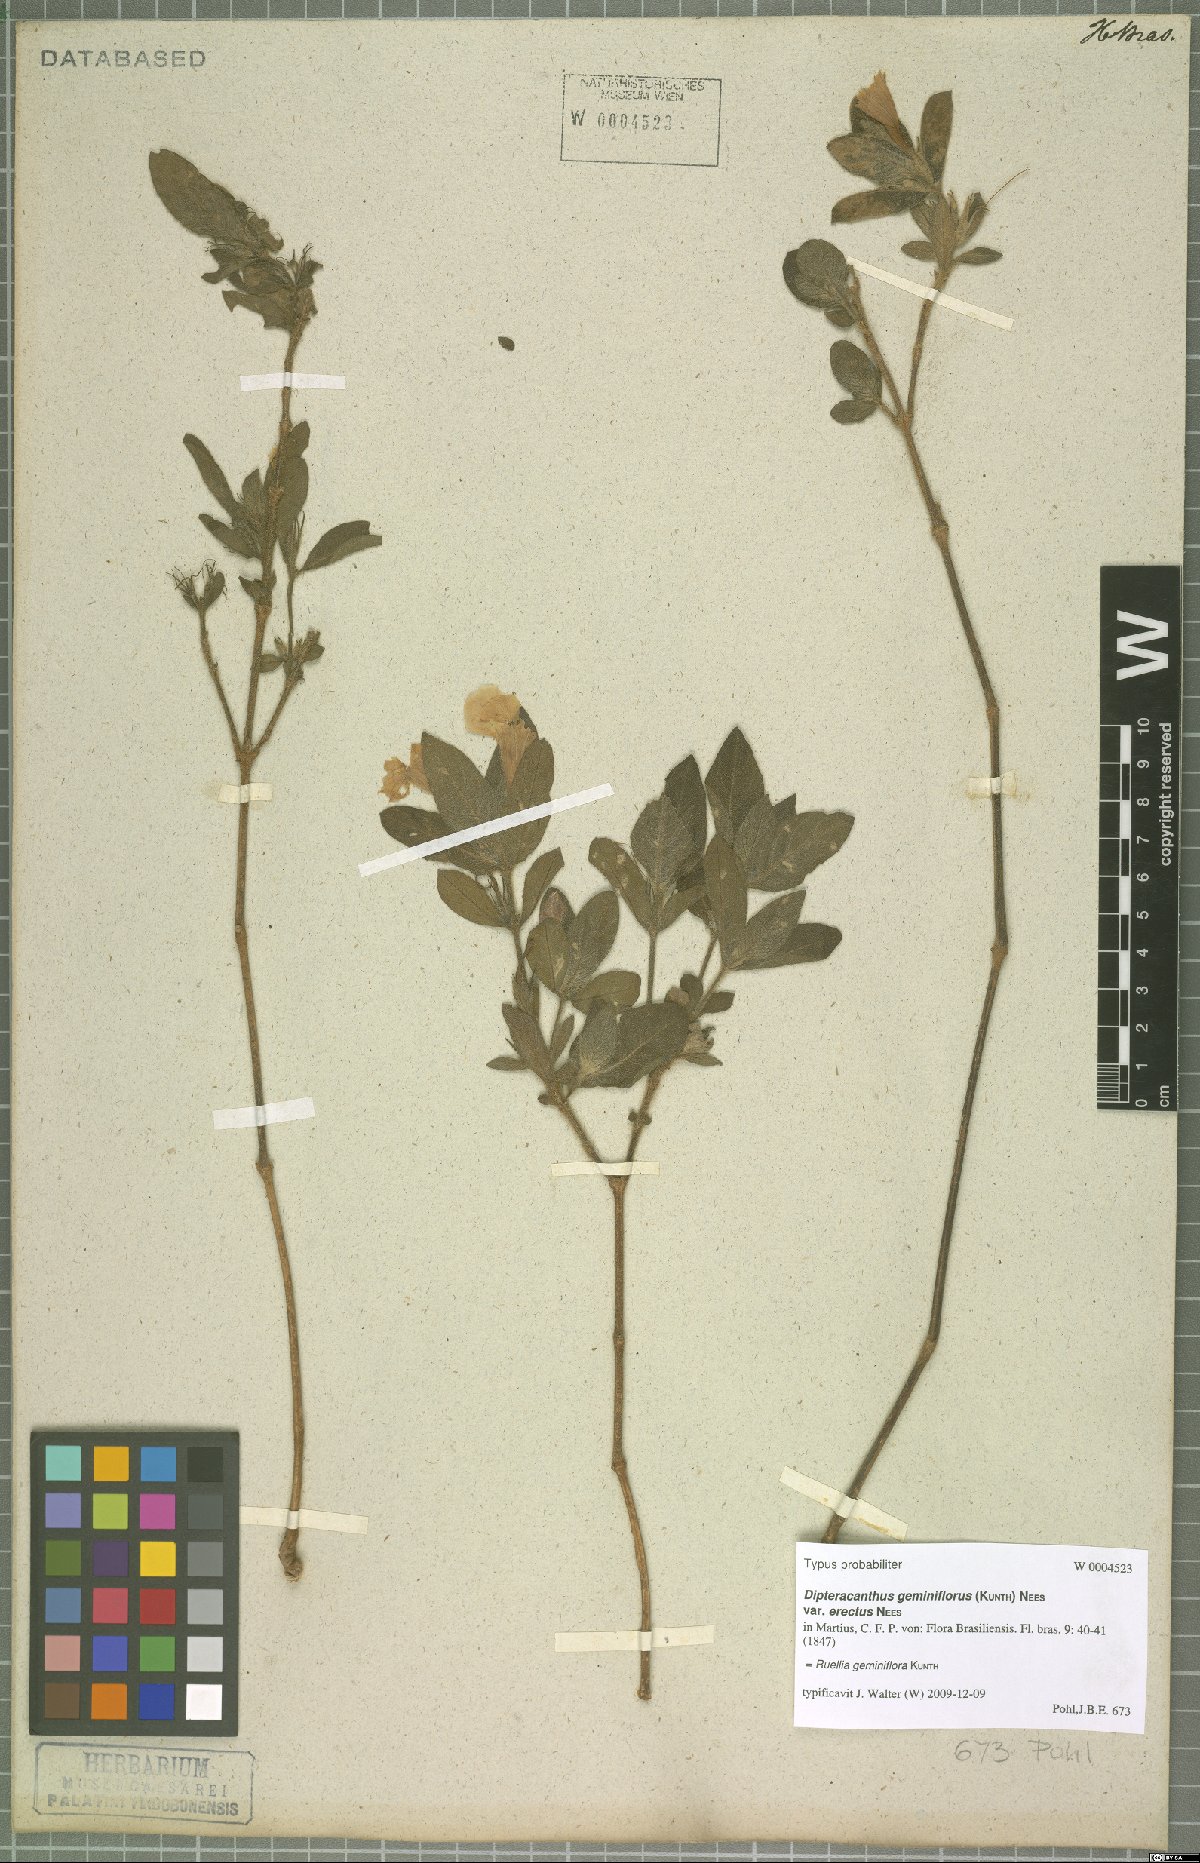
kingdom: Plantae
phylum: Tracheophyta
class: Magnoliopsida
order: Lamiales
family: Acanthaceae
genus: Ruellia
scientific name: Ruellia geminiflora
